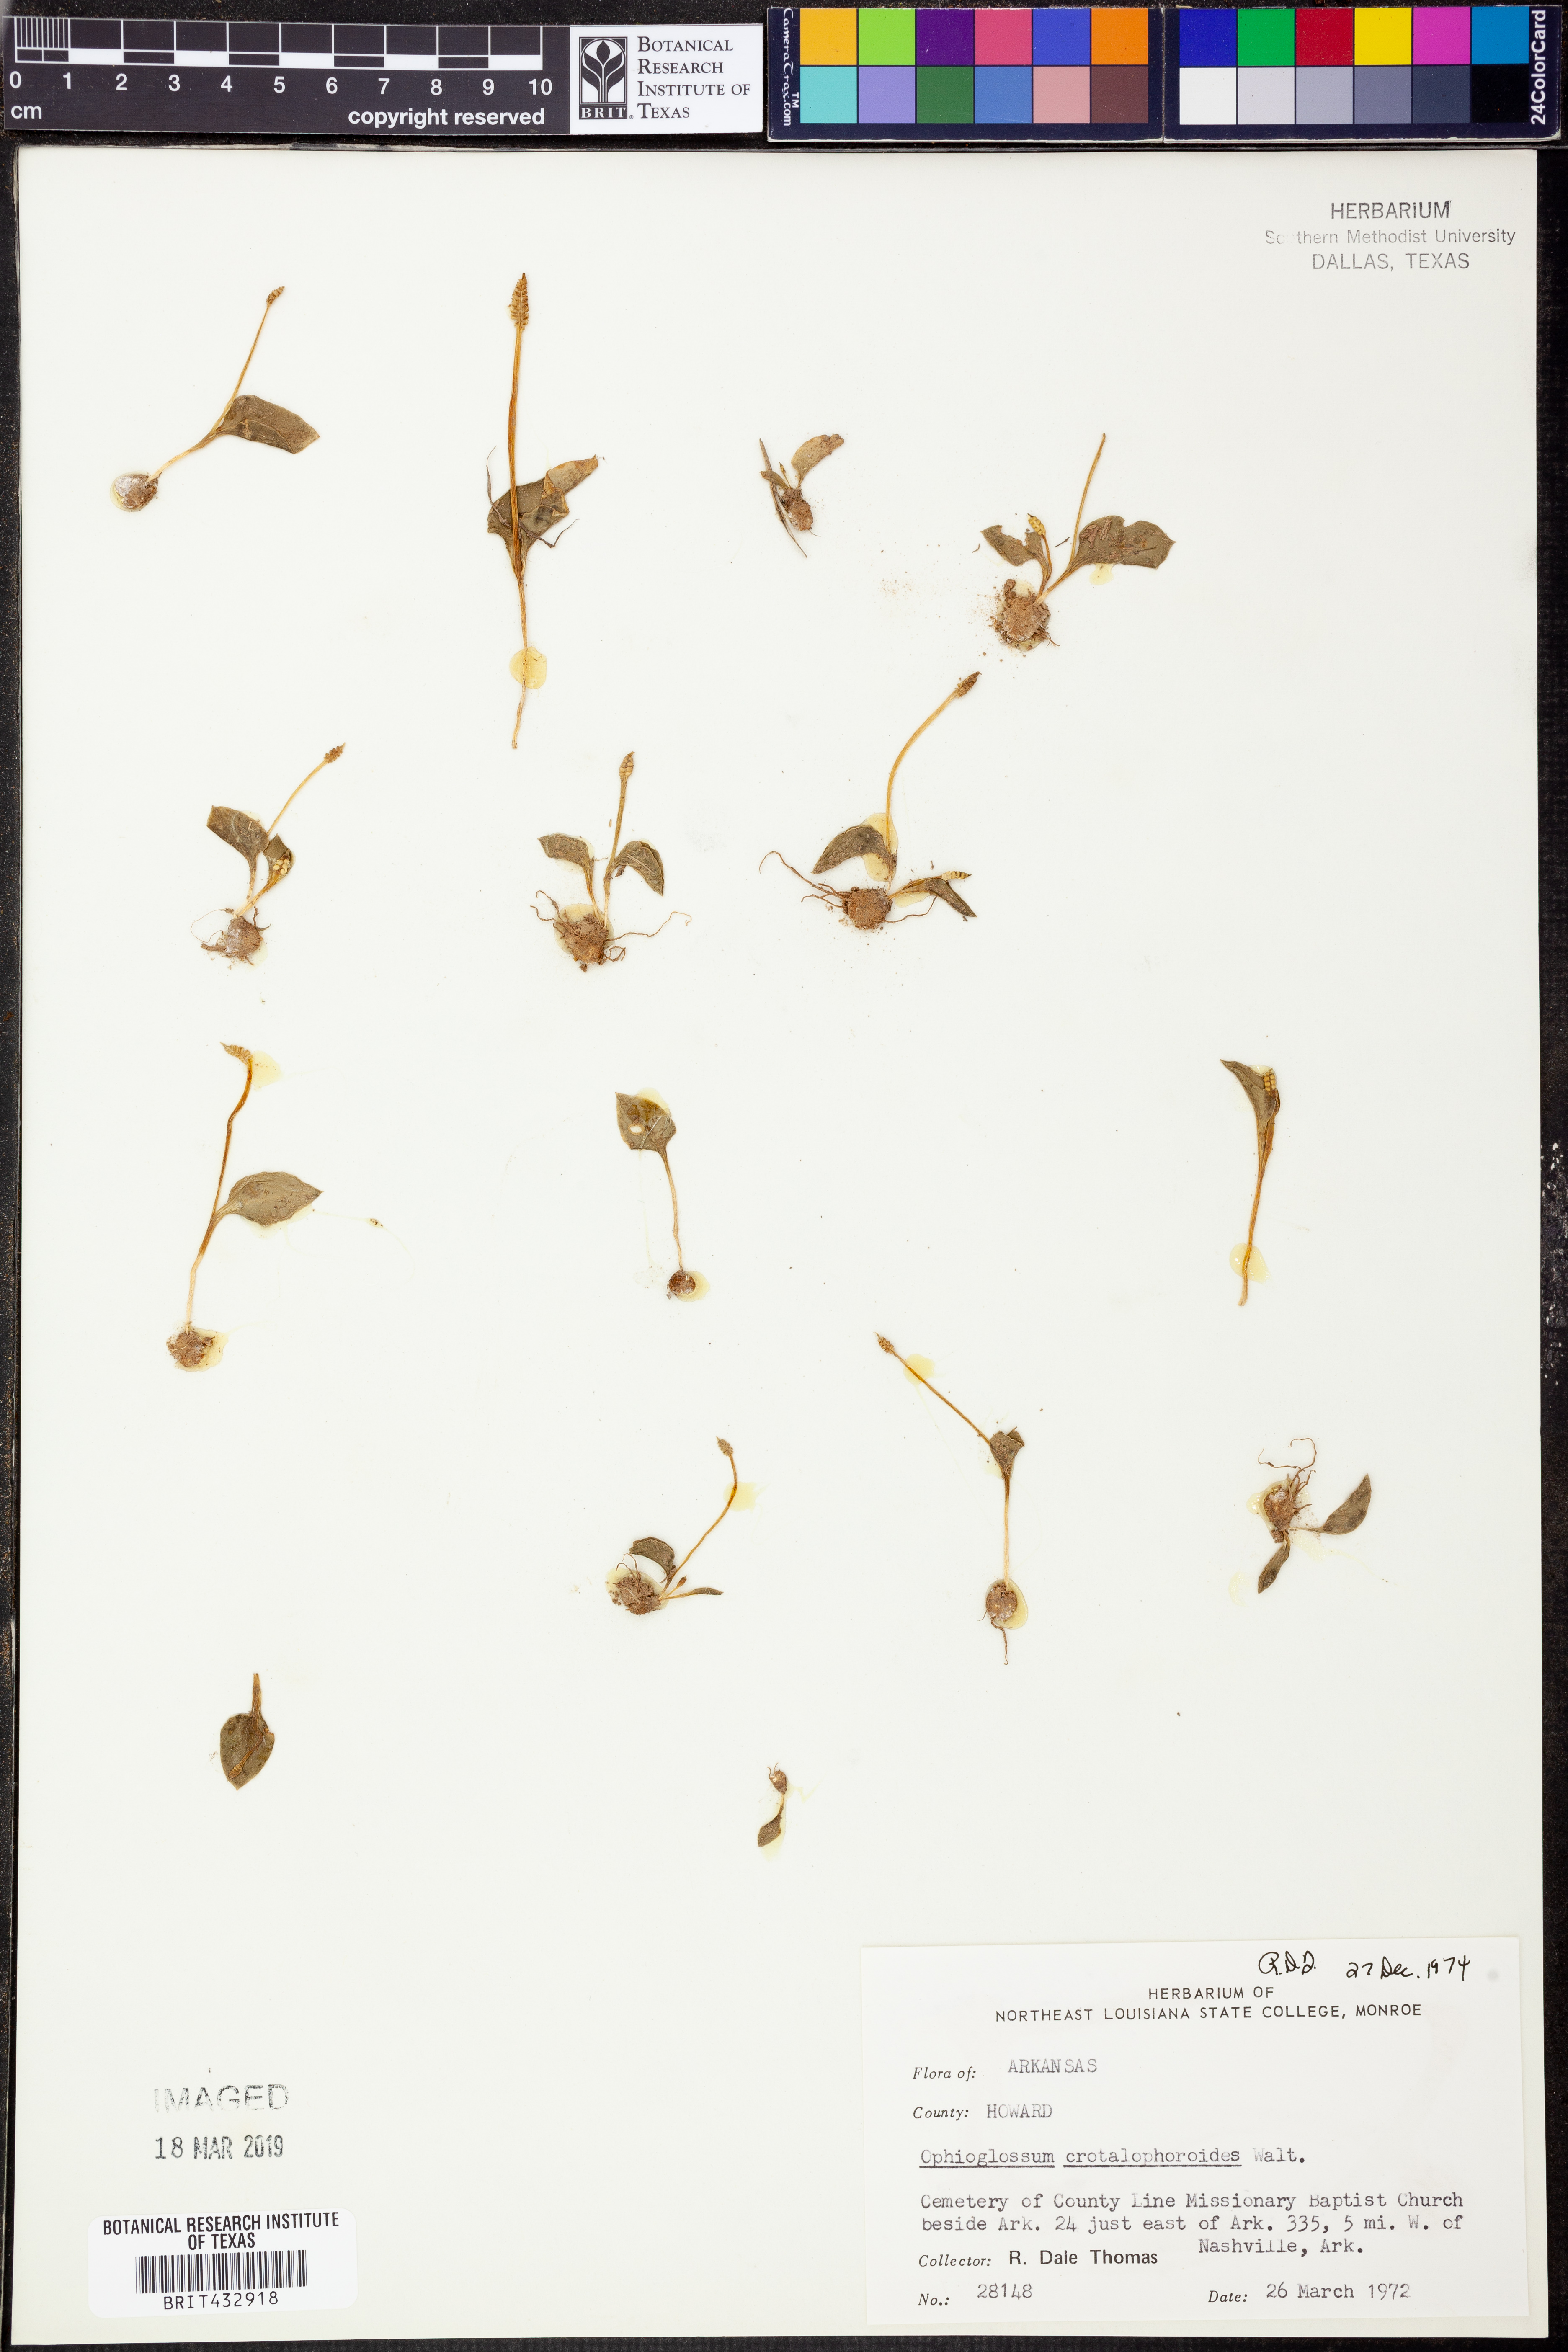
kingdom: Plantae
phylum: Tracheophyta
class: Polypodiopsida
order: Ophioglossales
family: Ophioglossaceae
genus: Ophioglossum
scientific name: Ophioglossum crotalophoroides
